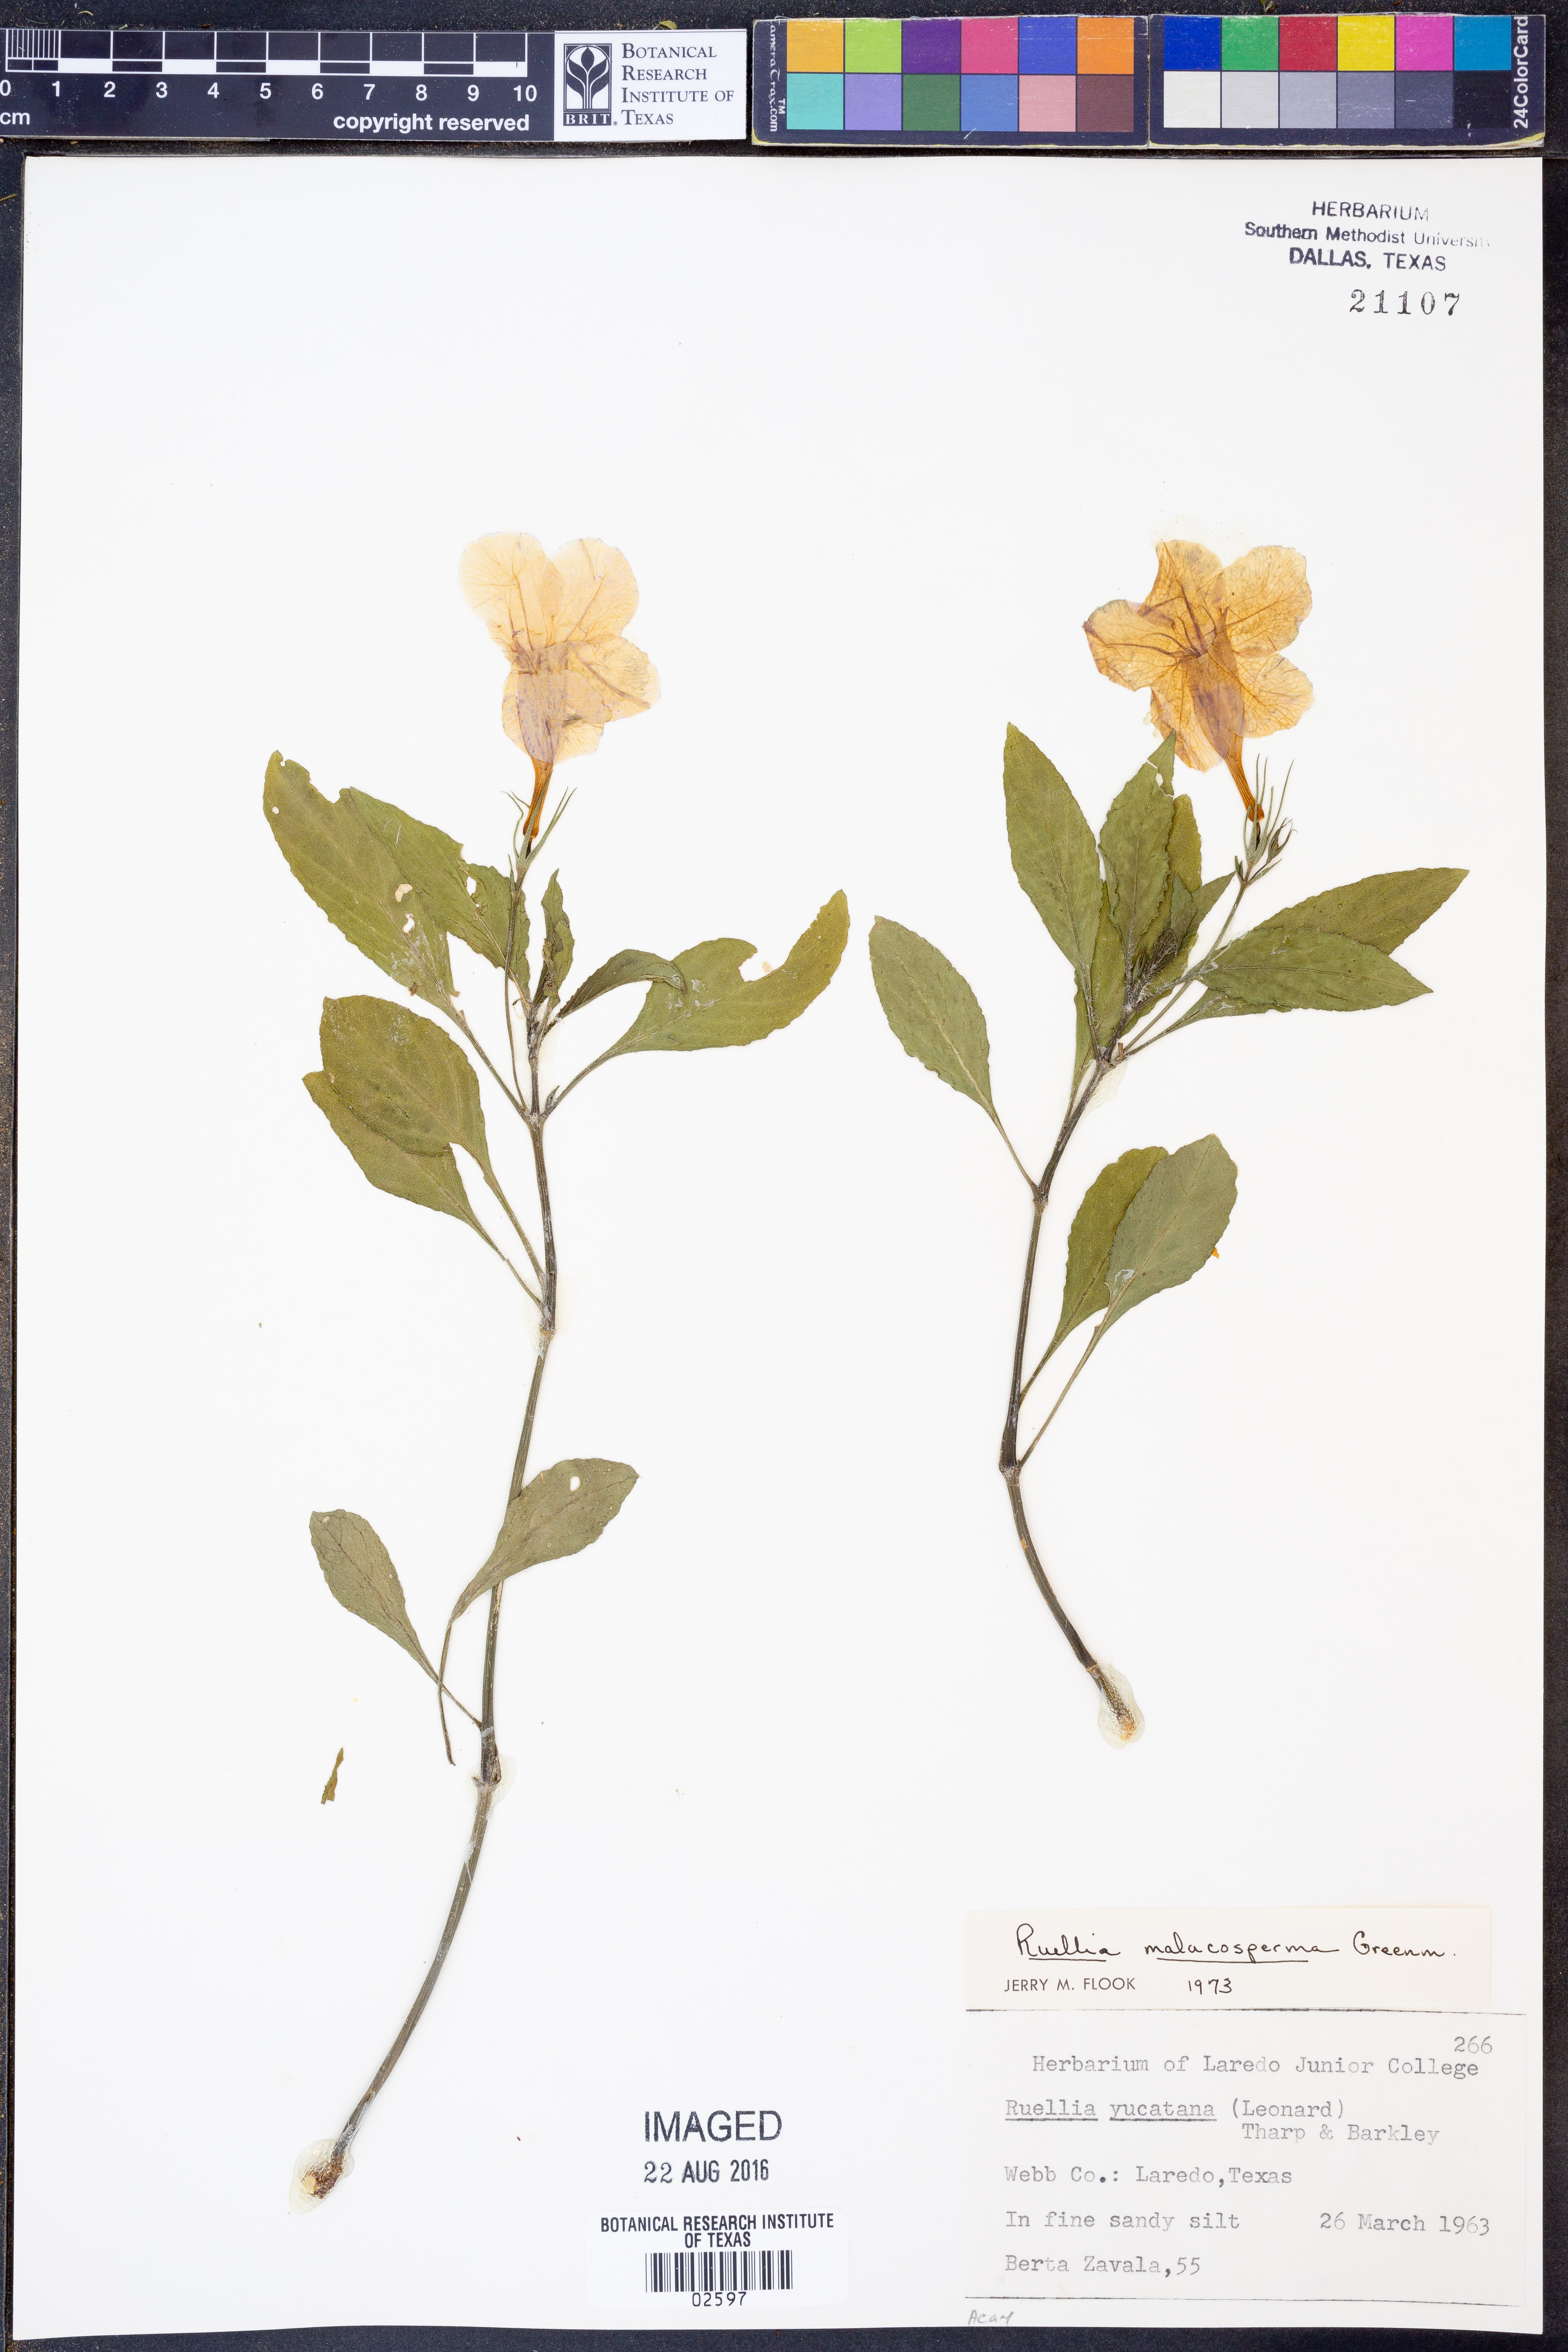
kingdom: Plantae
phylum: Tracheophyta
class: Magnoliopsida
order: Lamiales
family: Acanthaceae
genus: Ruellia
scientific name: Ruellia malacosperma
